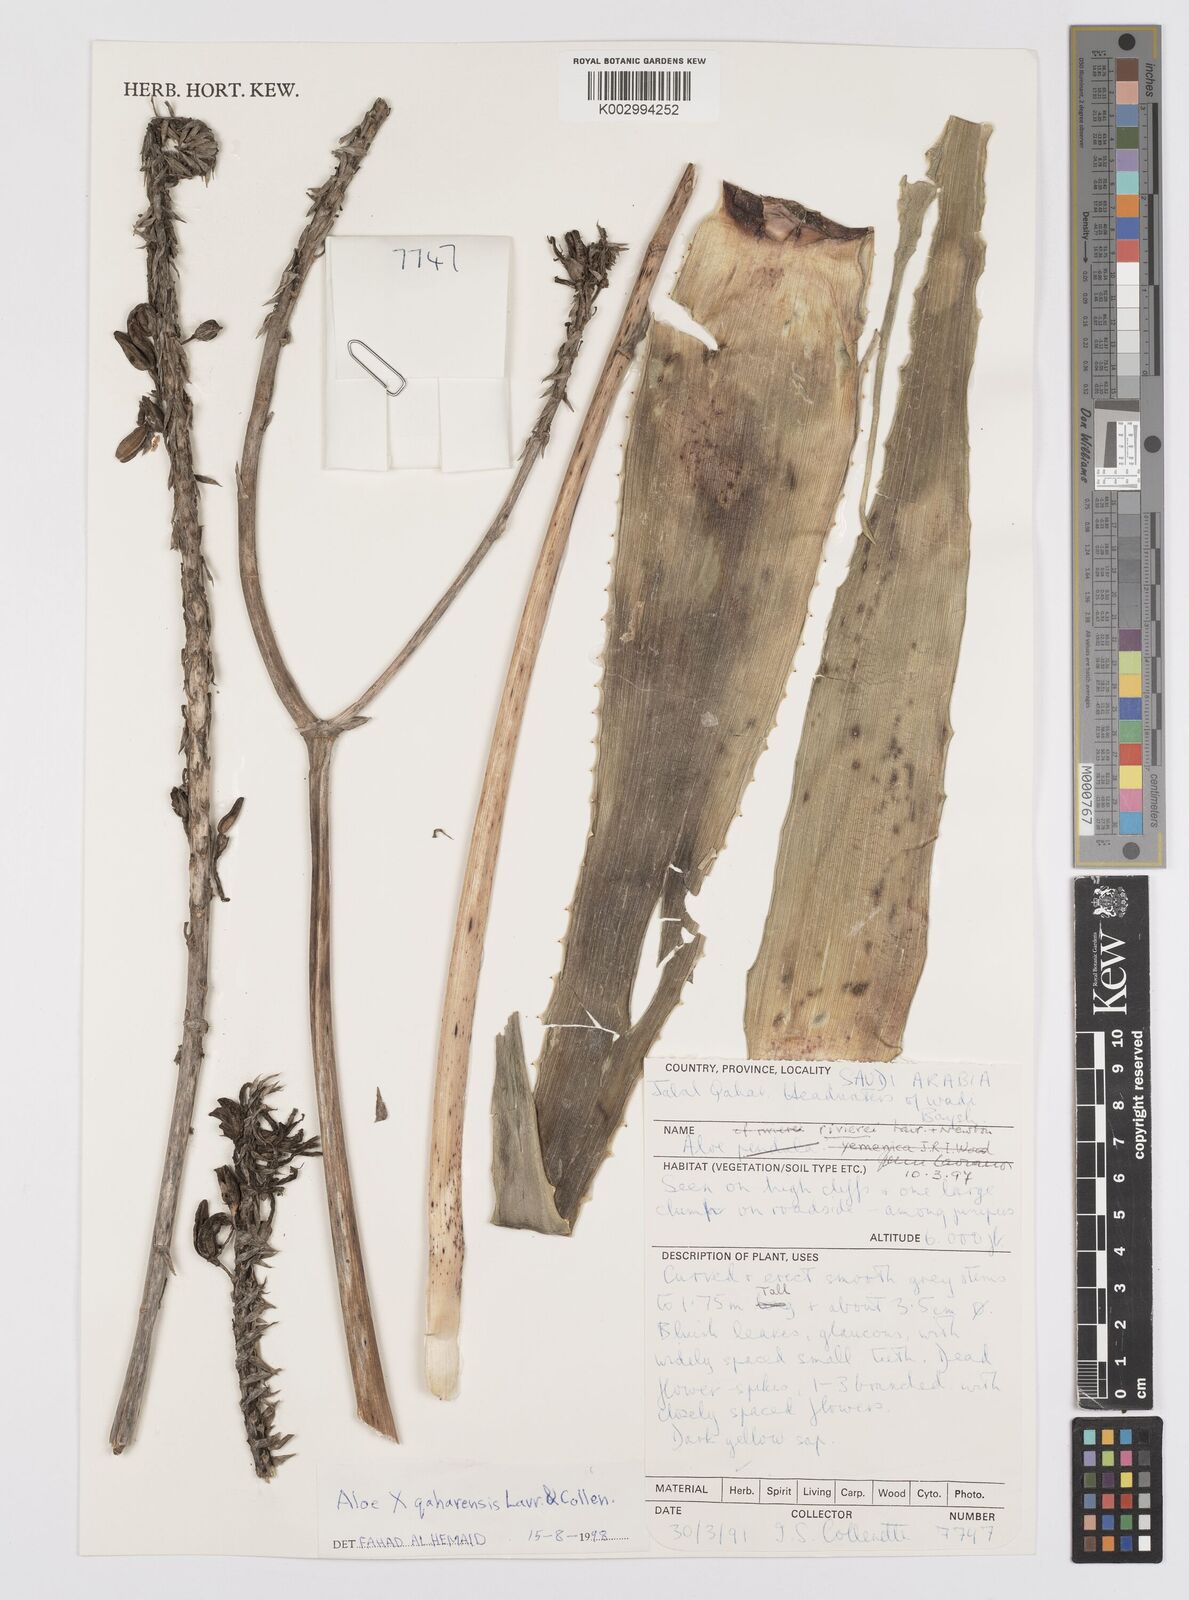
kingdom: Plantae
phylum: Tracheophyta
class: Liliopsida
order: Asparagales
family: Asphodelaceae
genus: Aloe
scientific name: Aloe
